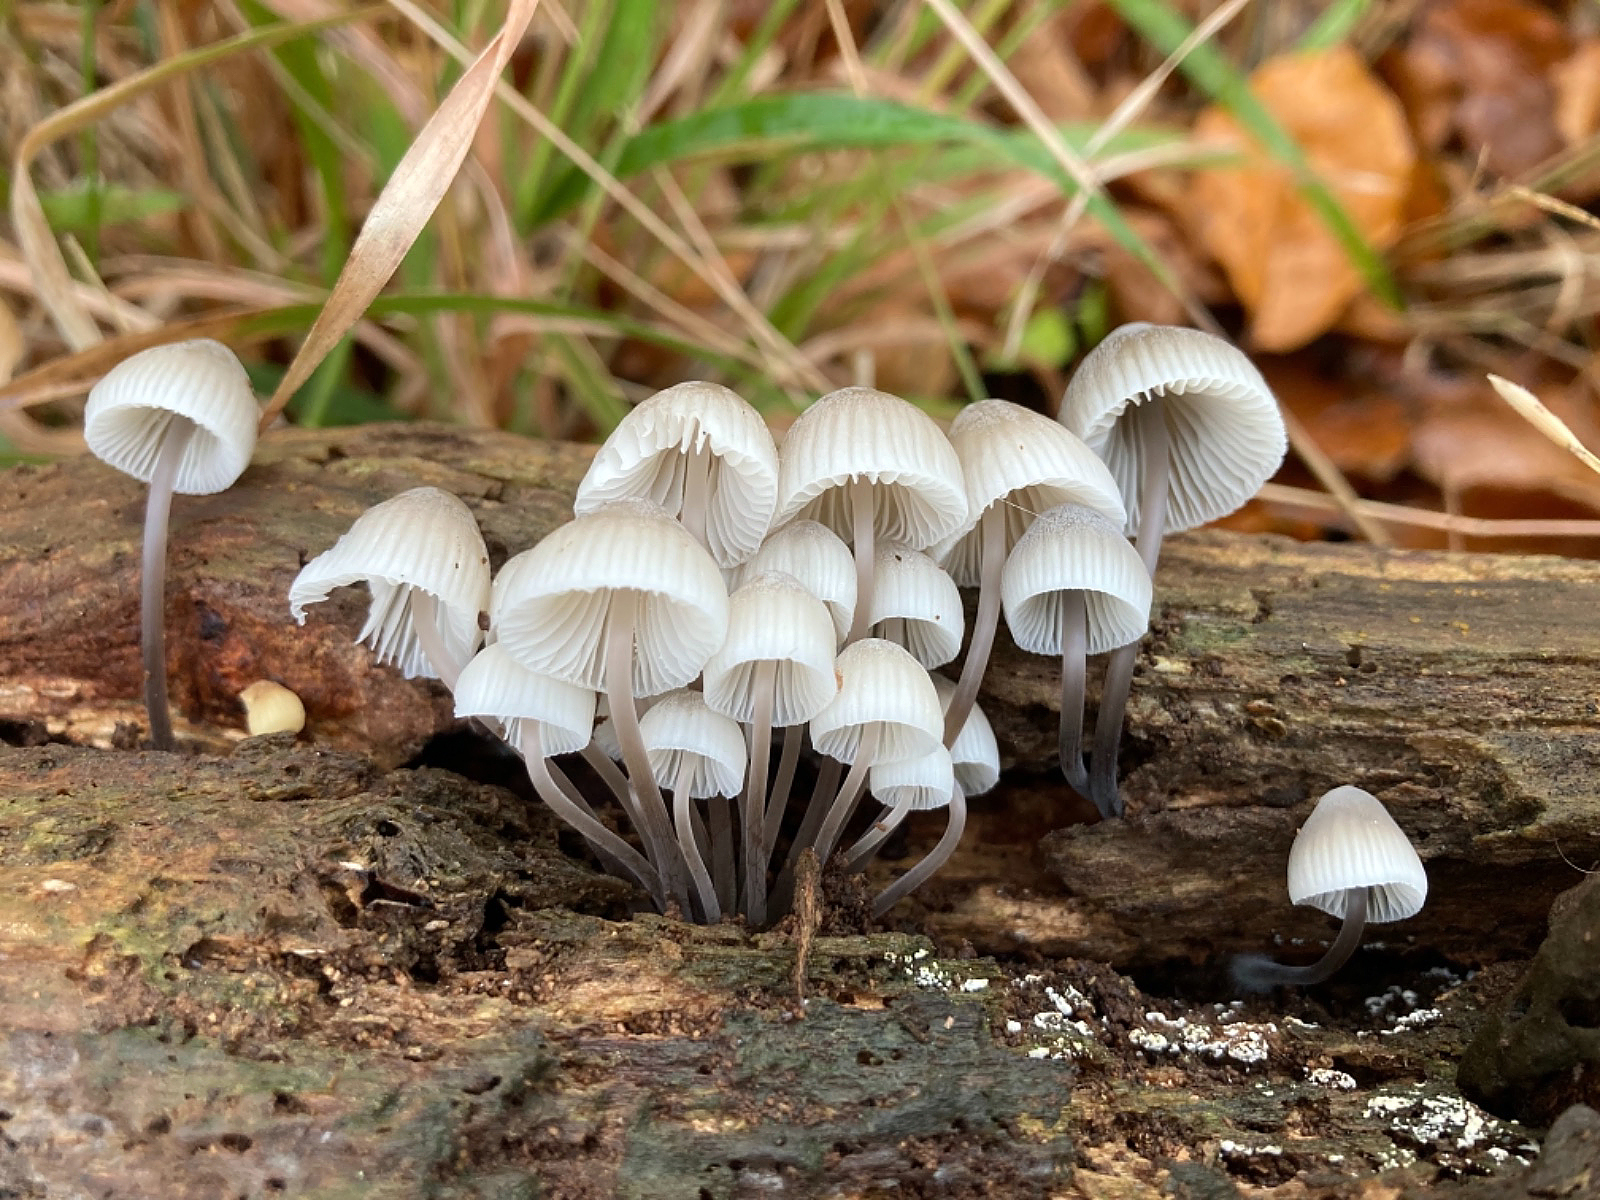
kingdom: Fungi
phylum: Basidiomycota
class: Agaricomycetes
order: Agaricales
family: Mycenaceae
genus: Mycena
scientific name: Mycena arcangeliana
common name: oliven-huesvamp
